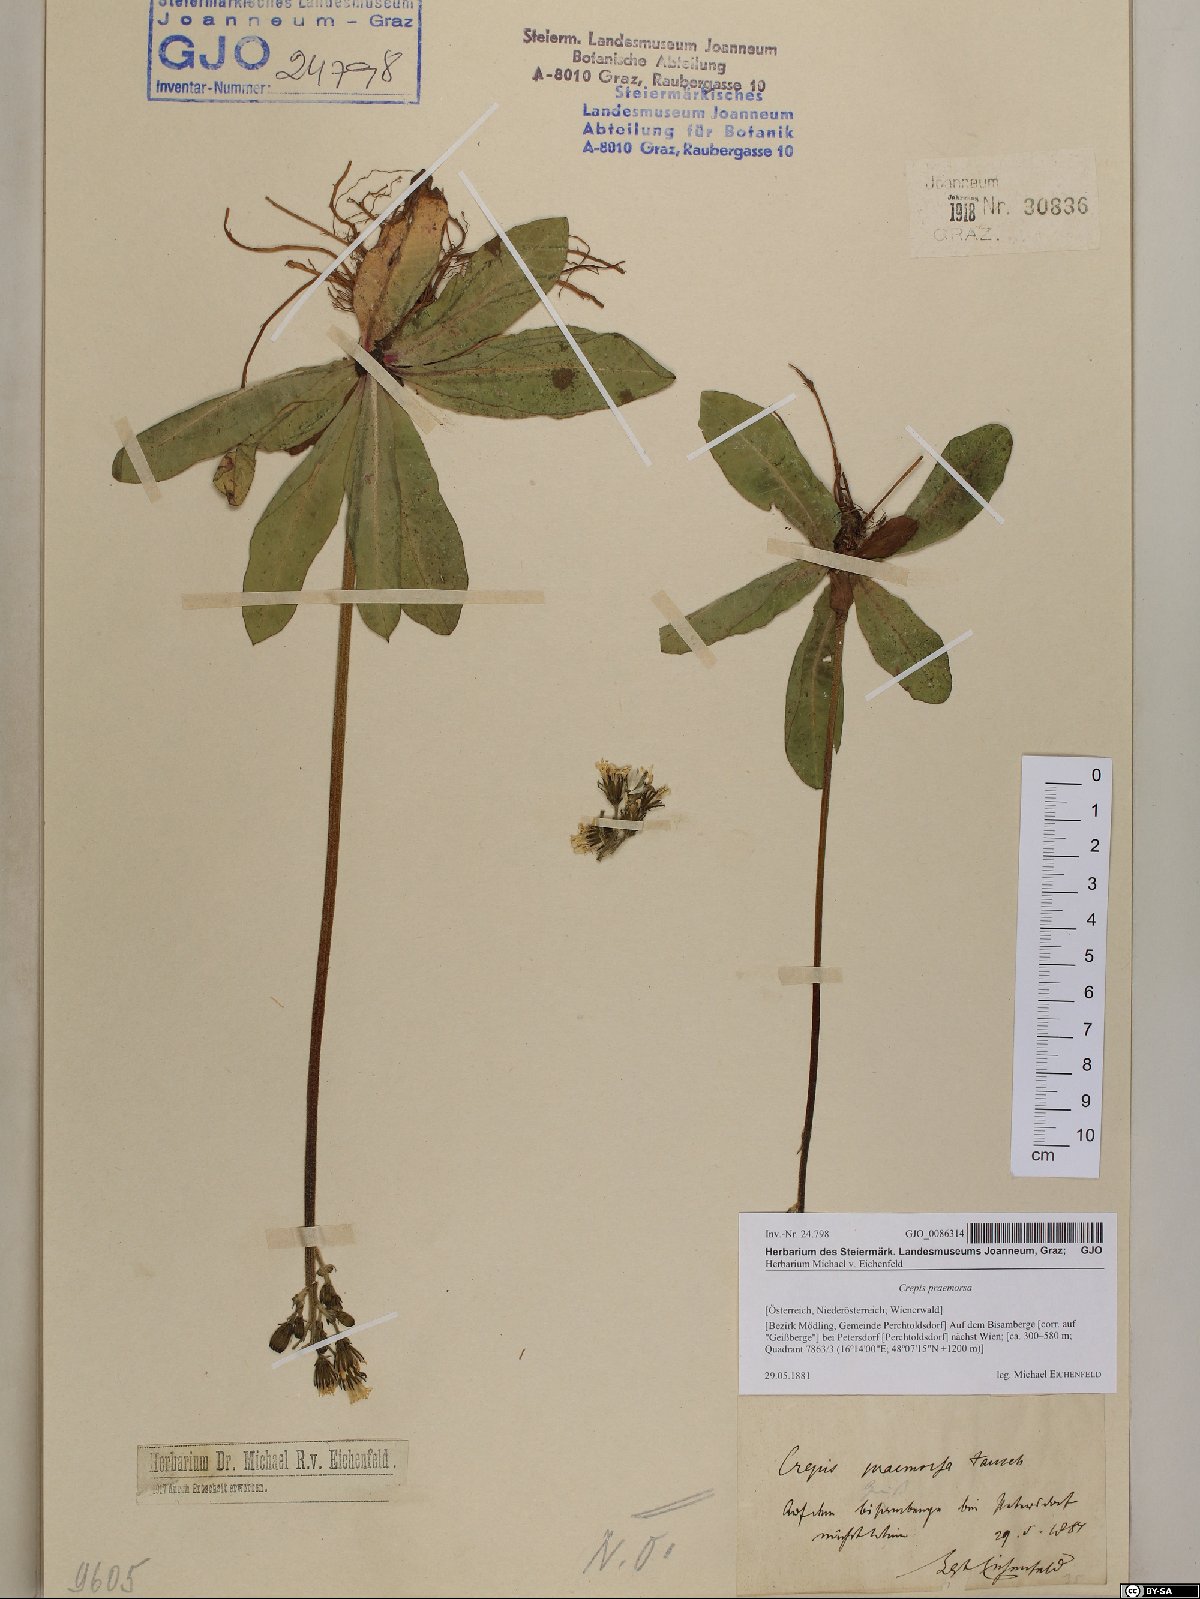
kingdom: Plantae
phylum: Tracheophyta
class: Magnoliopsida
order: Asterales
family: Asteraceae
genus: Crepis
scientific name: Crepis praemorsa
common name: Leafless hawk's-beard
